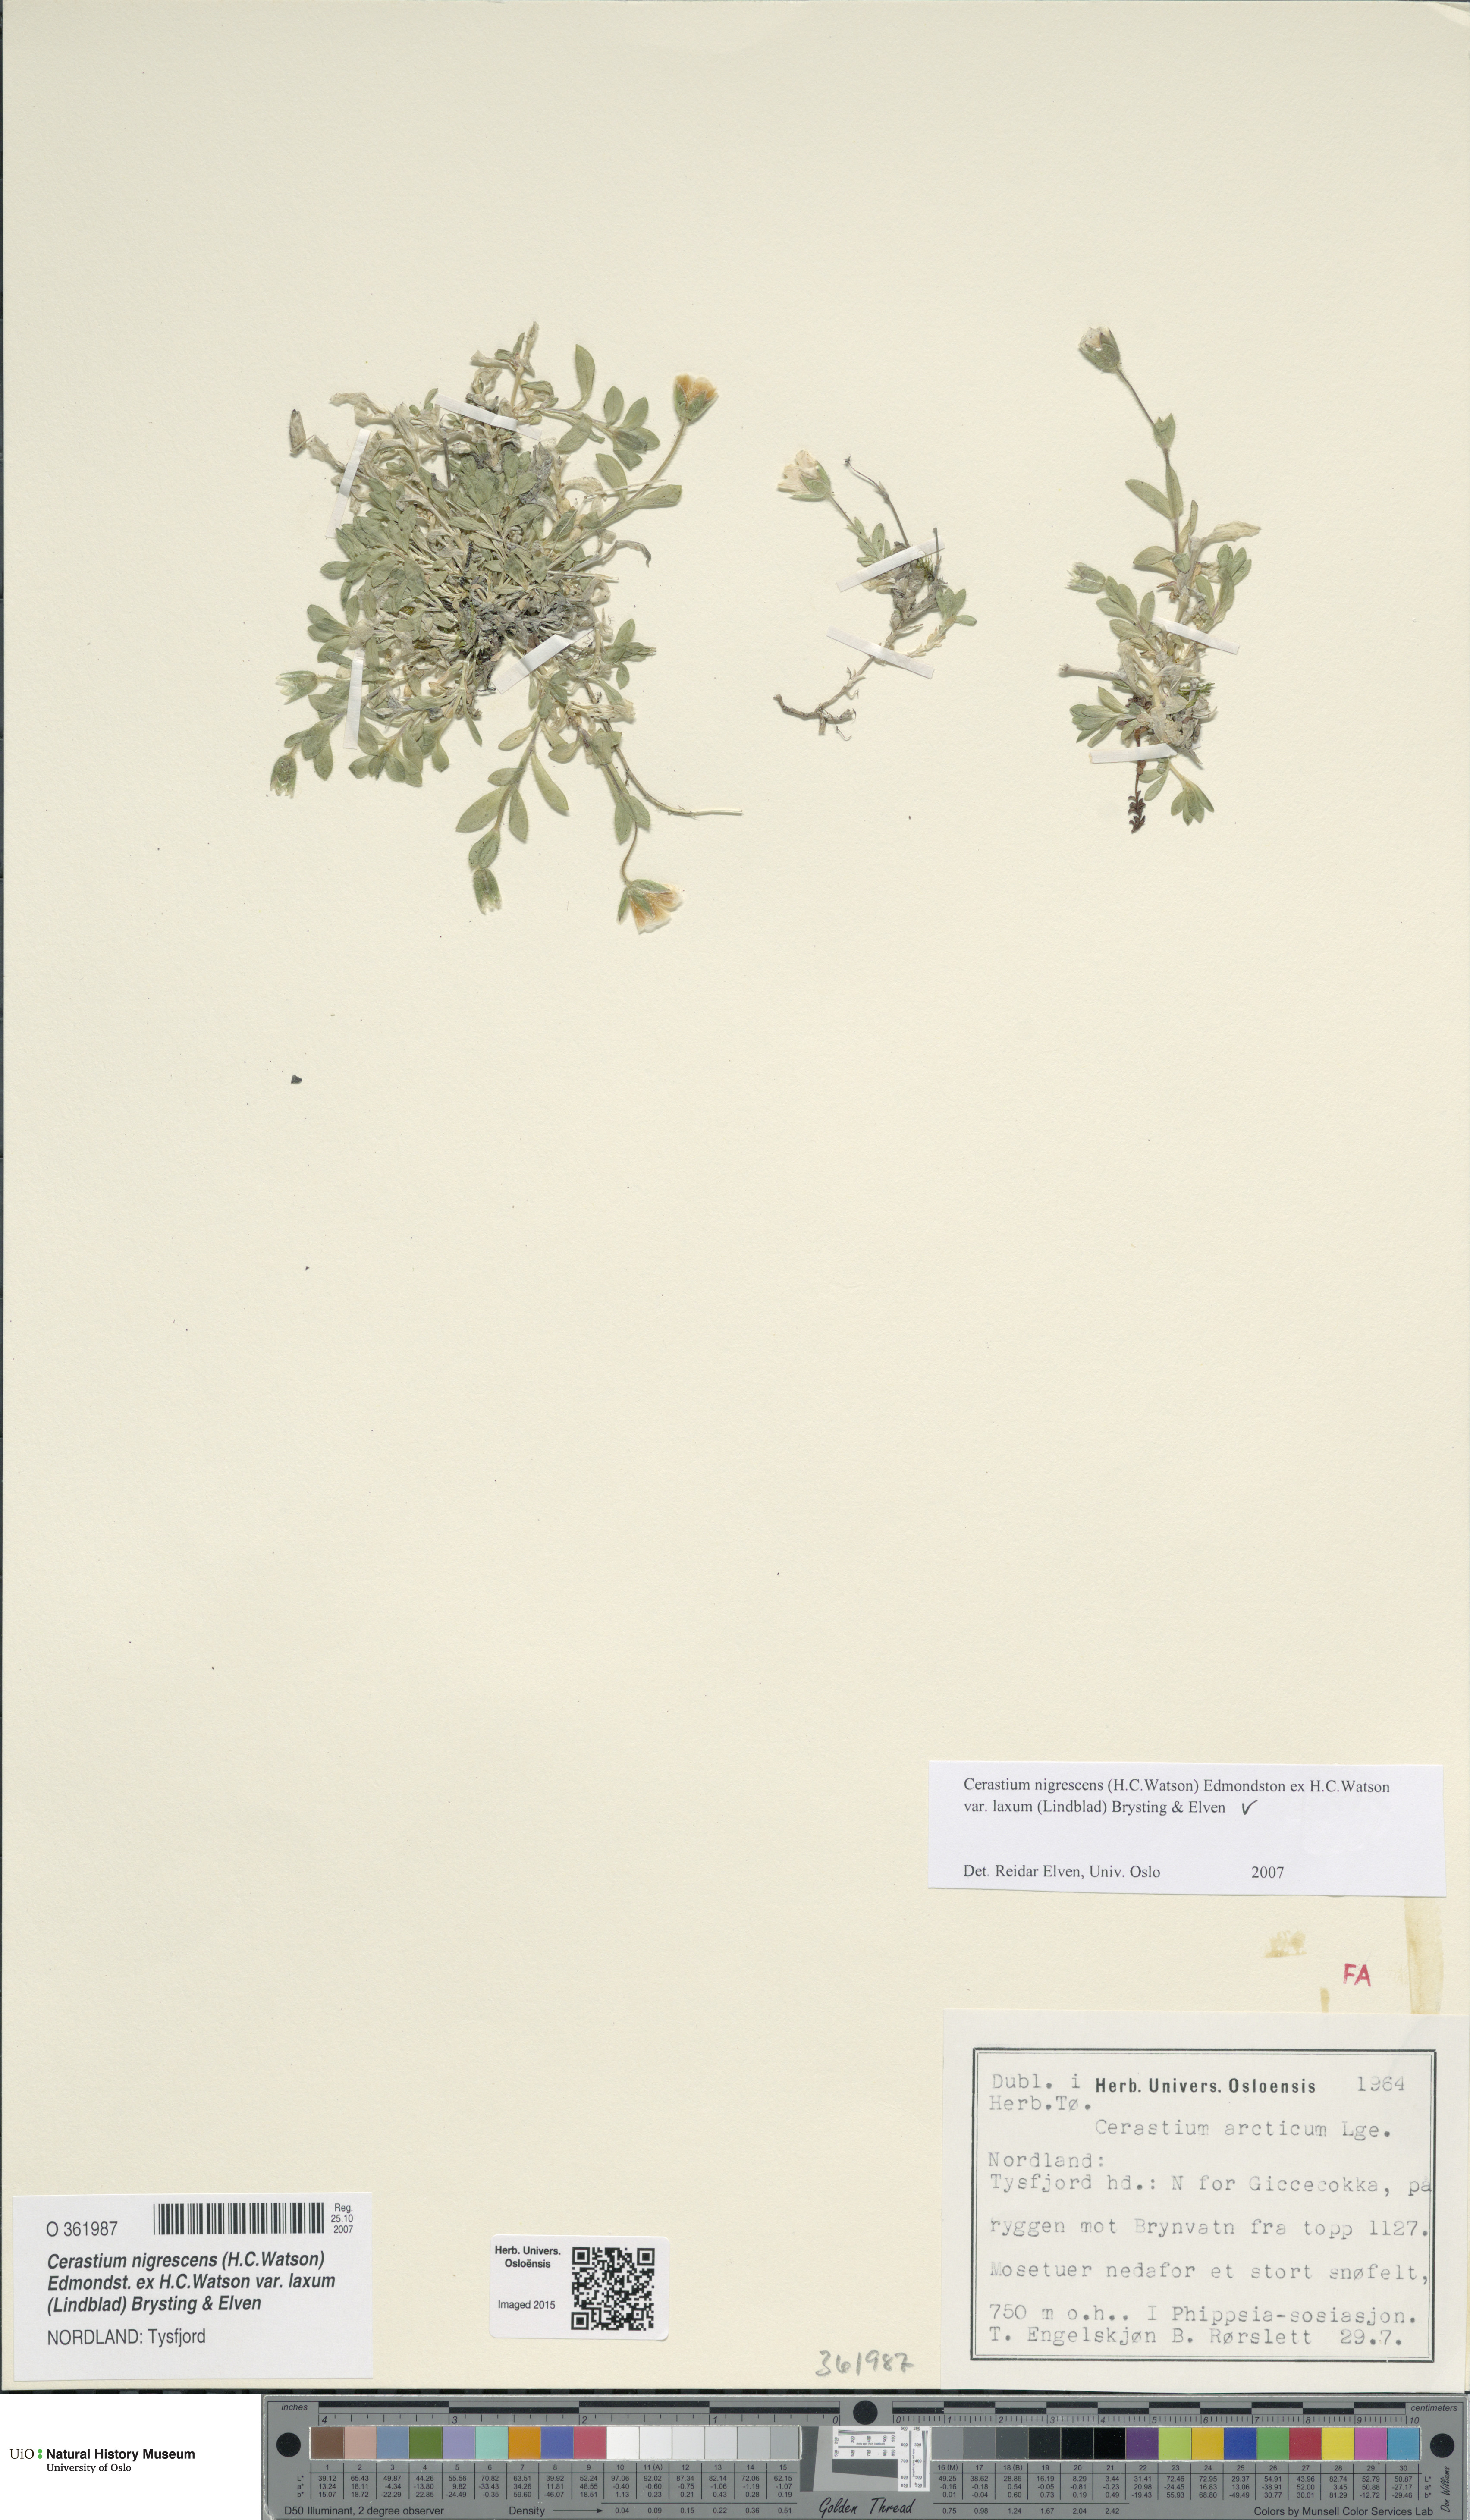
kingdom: Plantae
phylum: Tracheophyta
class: Magnoliopsida
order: Caryophyllales
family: Caryophyllaceae
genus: Cerastium
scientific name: Cerastium nigrescens
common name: Shetland mouse-ear
